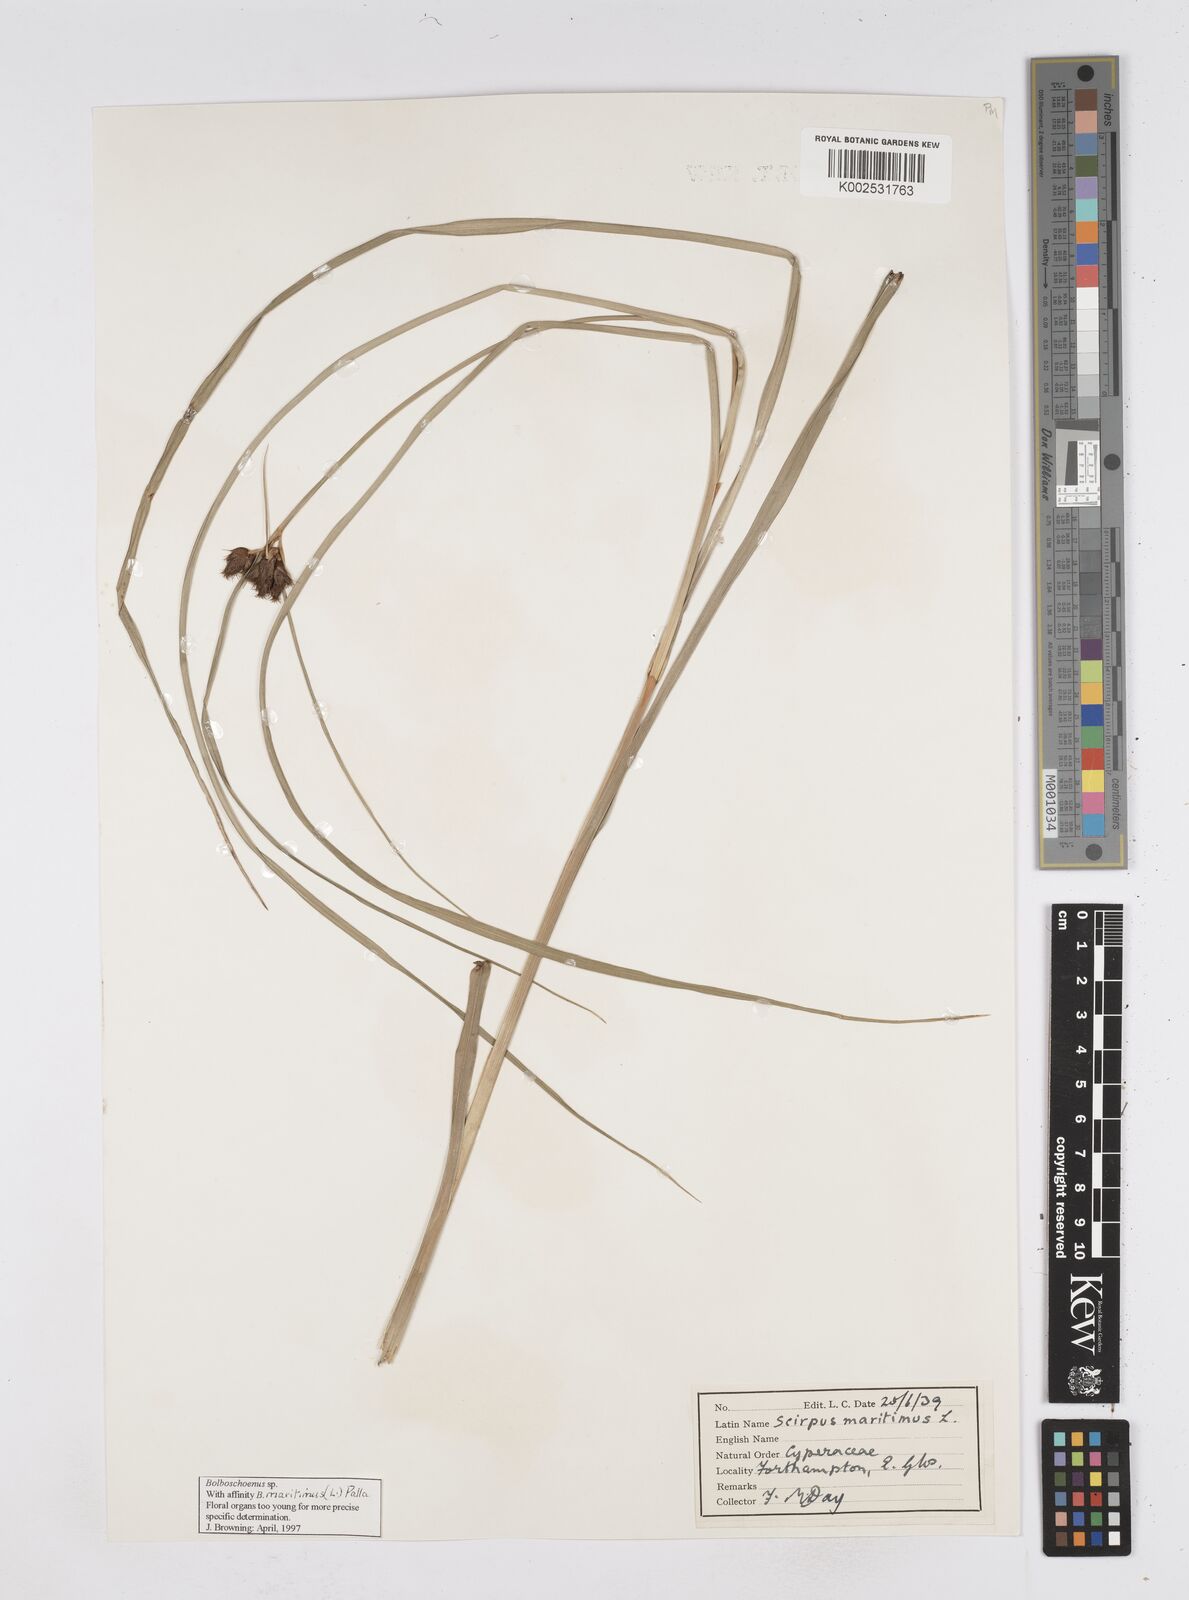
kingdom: Plantae
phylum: Tracheophyta
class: Liliopsida
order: Poales
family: Cyperaceae
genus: Bolboschoenus
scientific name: Bolboschoenus maritimus
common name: Sea club-rush
